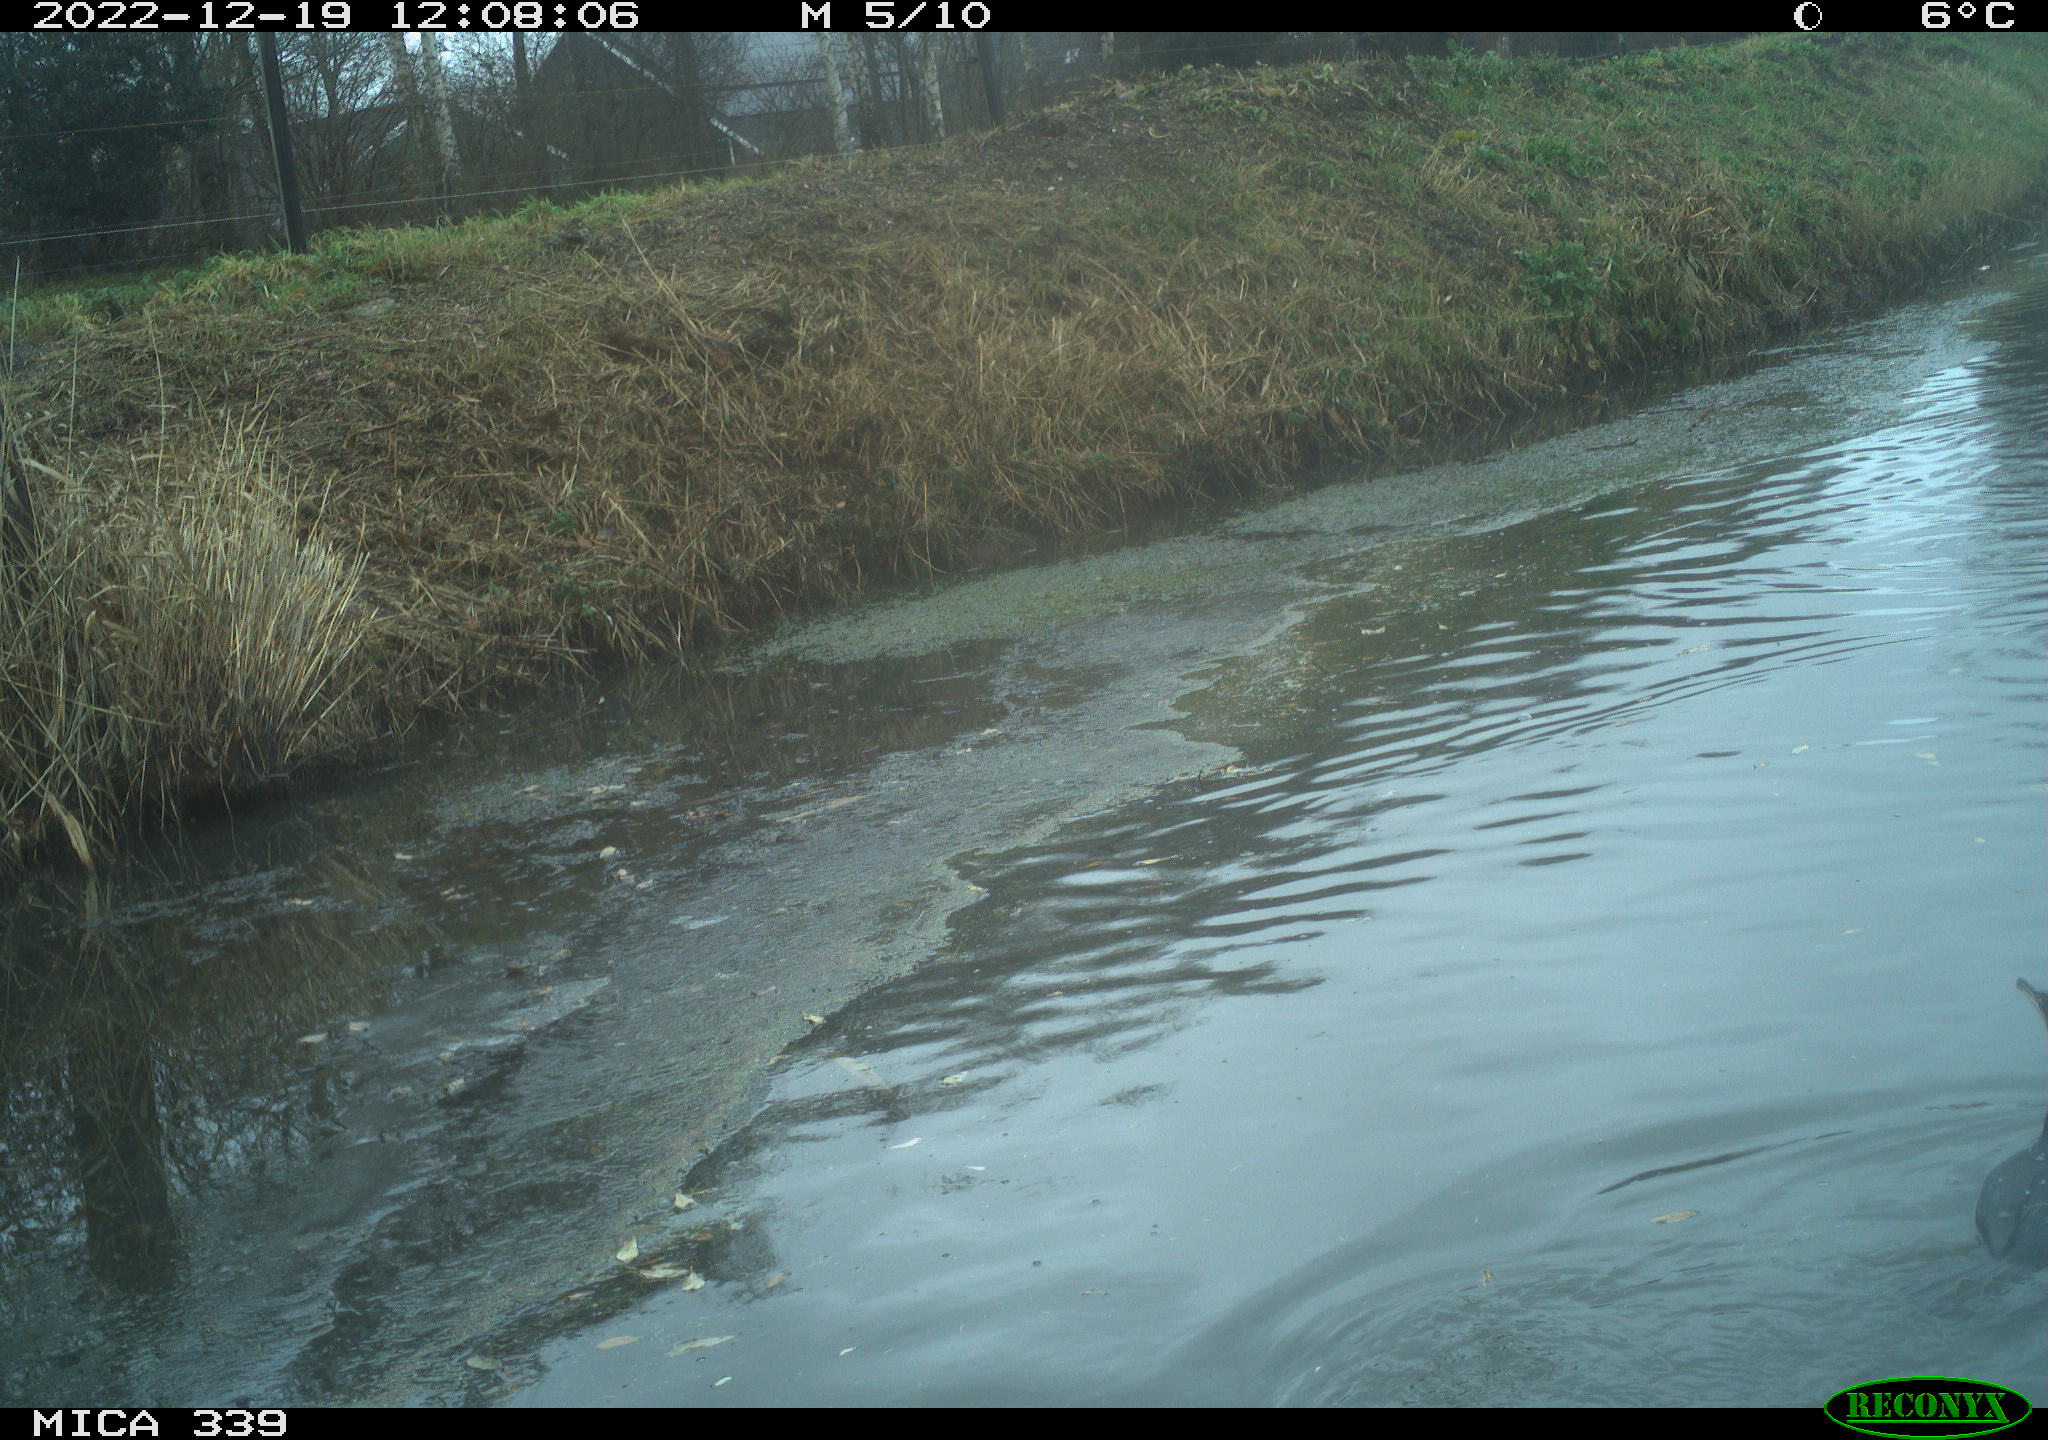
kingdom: Animalia
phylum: Chordata
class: Aves
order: Suliformes
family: Phalacrocoracidae
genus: Phalacrocorax
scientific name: Phalacrocorax carbo
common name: Great cormorant
